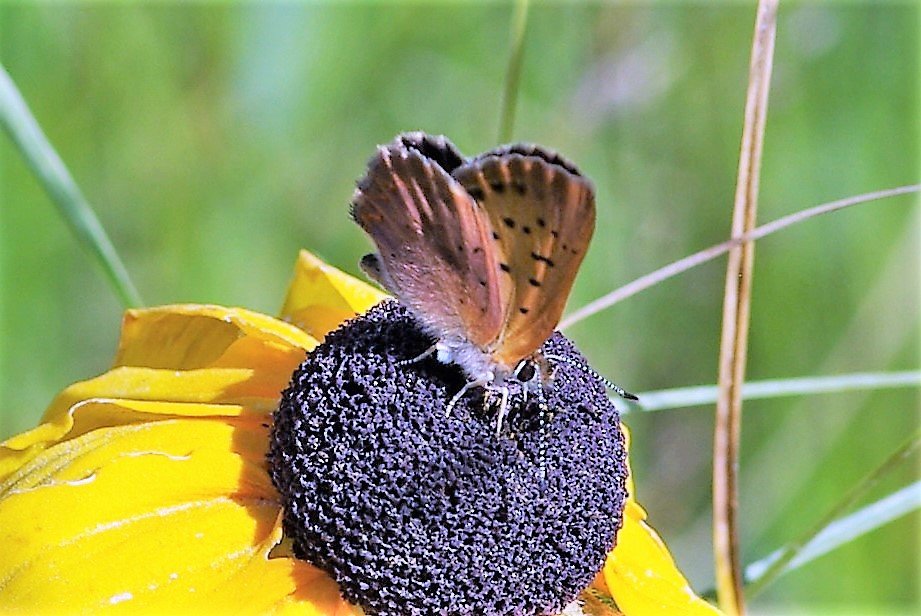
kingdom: Animalia
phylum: Arthropoda
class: Insecta
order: Lepidoptera
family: Sesiidae
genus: Sesia
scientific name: Sesia Lycaena helloides
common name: Purplish Copper
